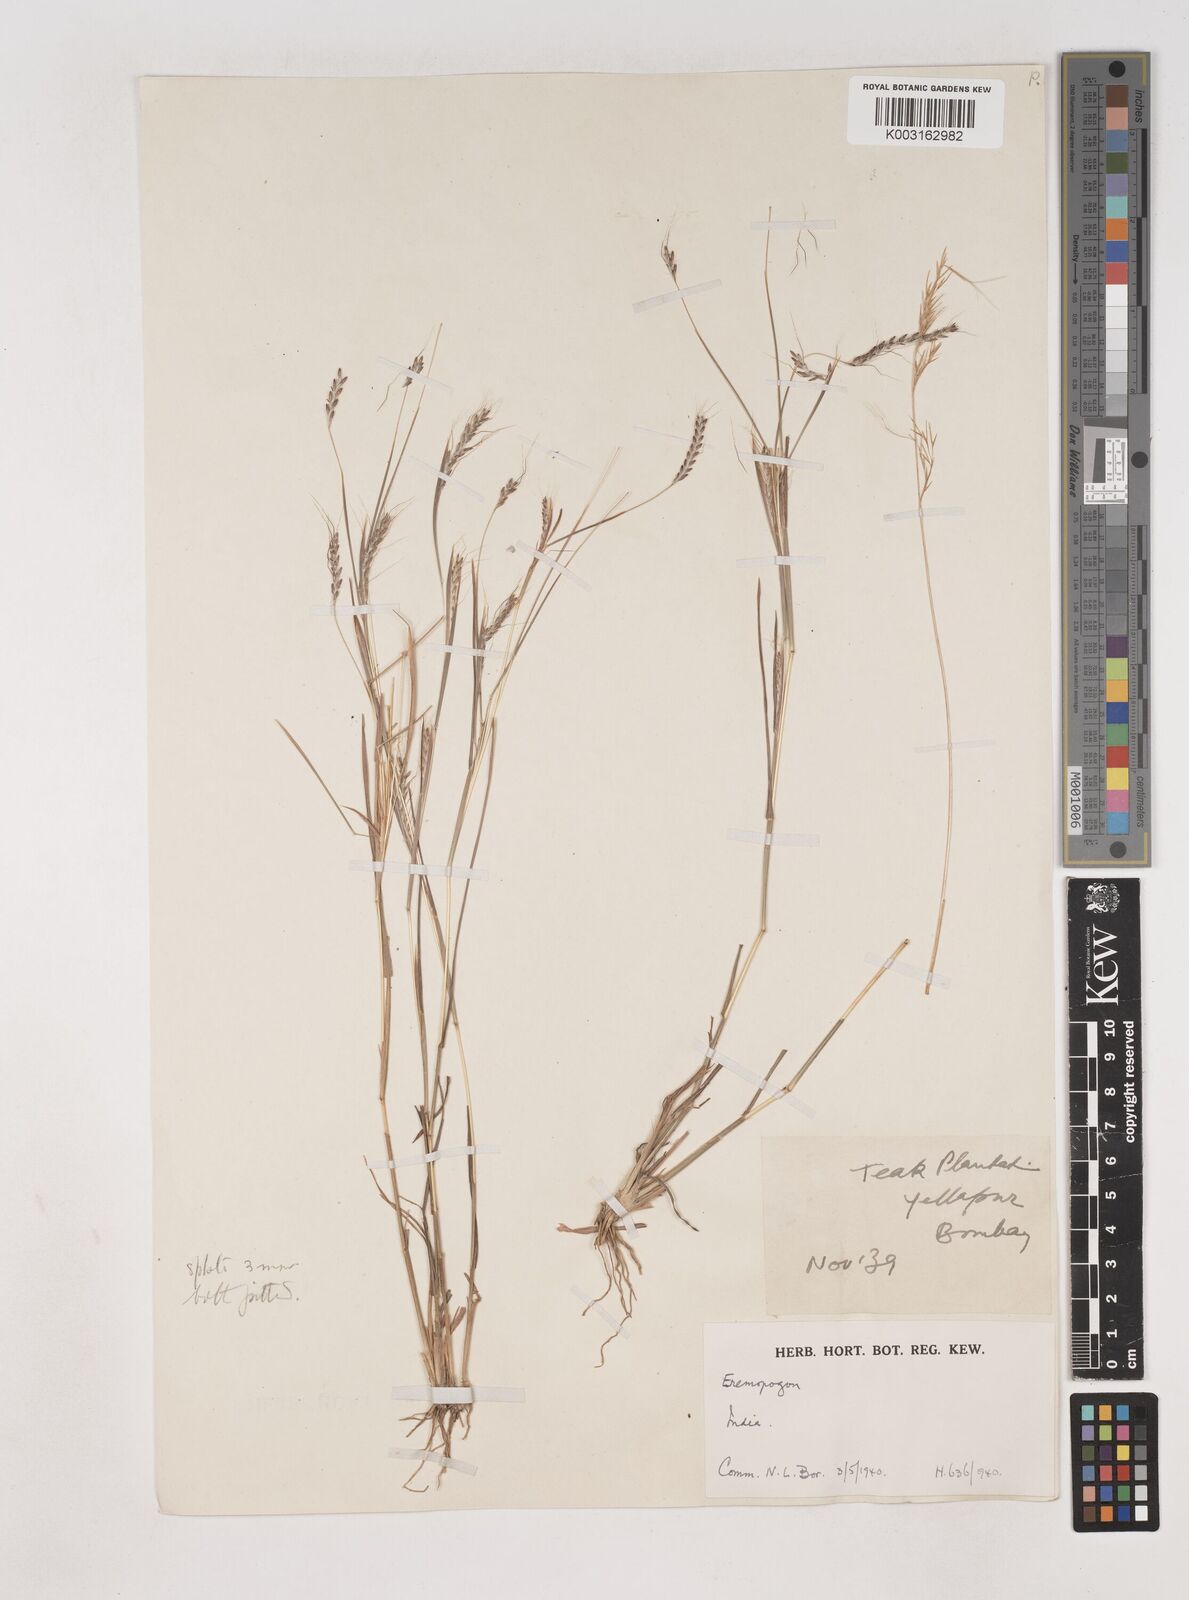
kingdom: Plantae
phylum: Tracheophyta
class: Liliopsida
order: Poales
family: Poaceae
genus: Dichanthium
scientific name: Dichanthium foveolatum
